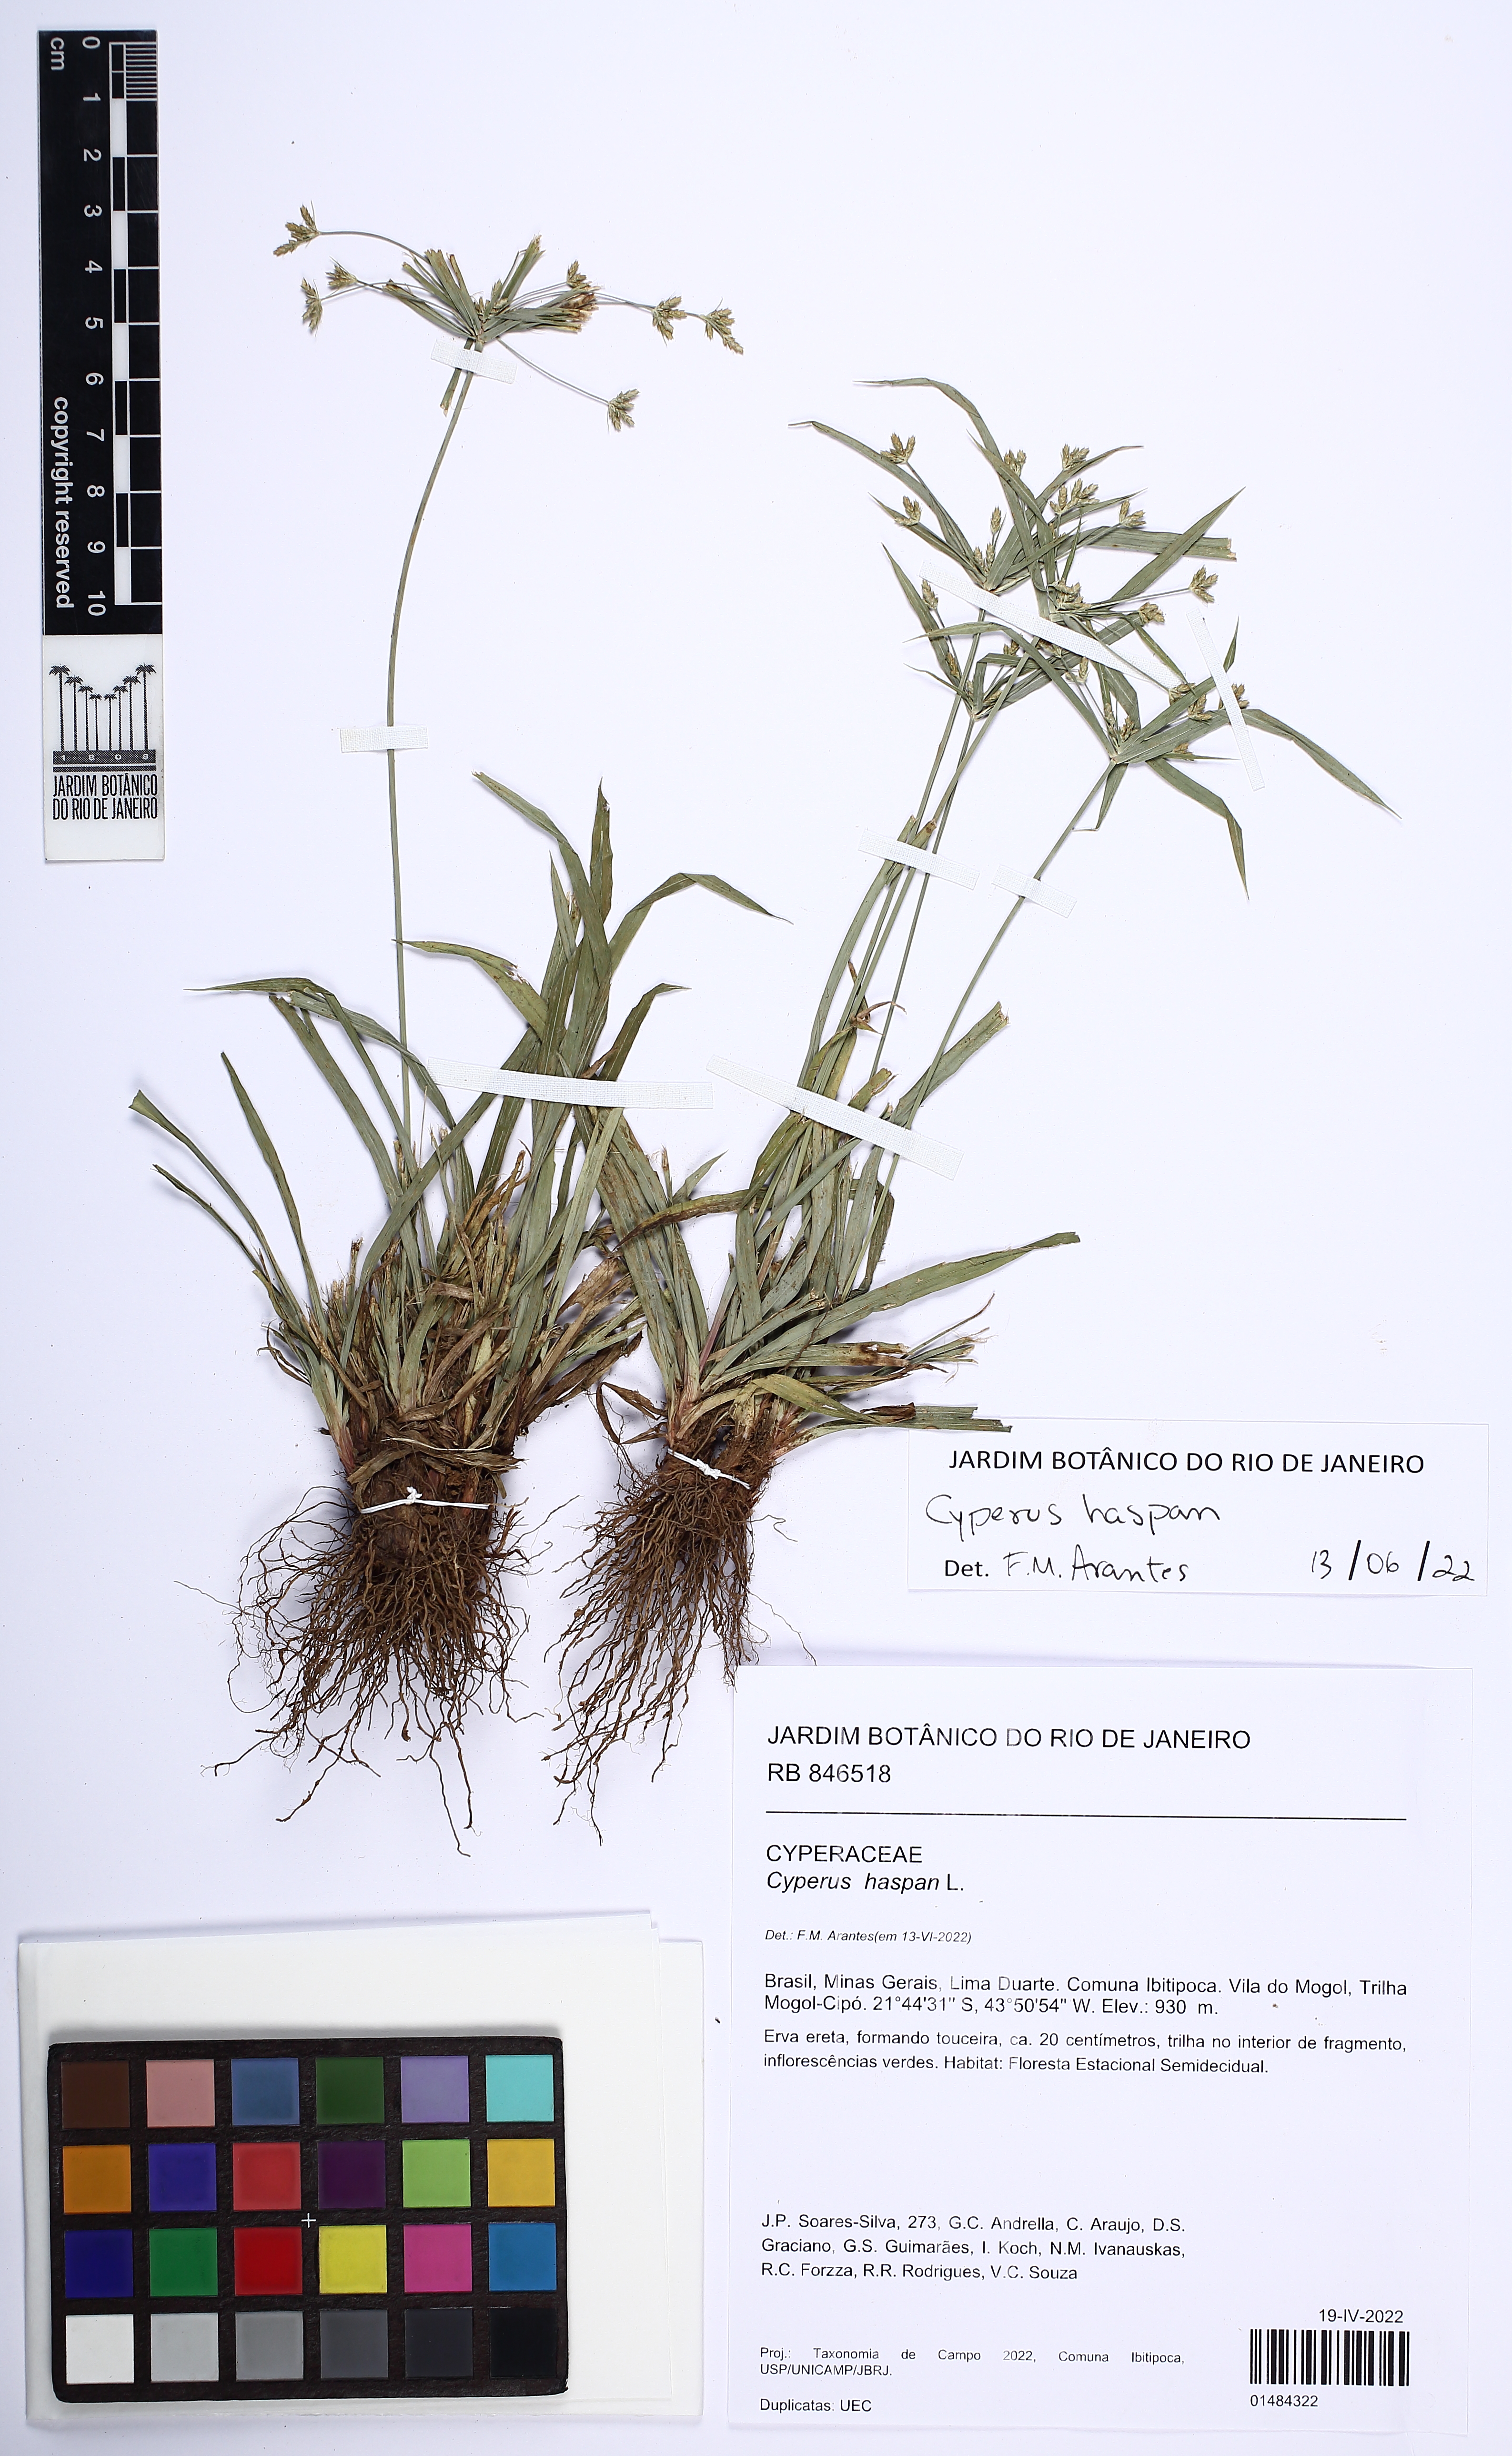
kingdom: Plantae
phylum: Tracheophyta
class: Liliopsida
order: Poales
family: Cyperaceae
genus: Cyperus
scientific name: Cyperus haspan
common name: Haspan flatsedge
